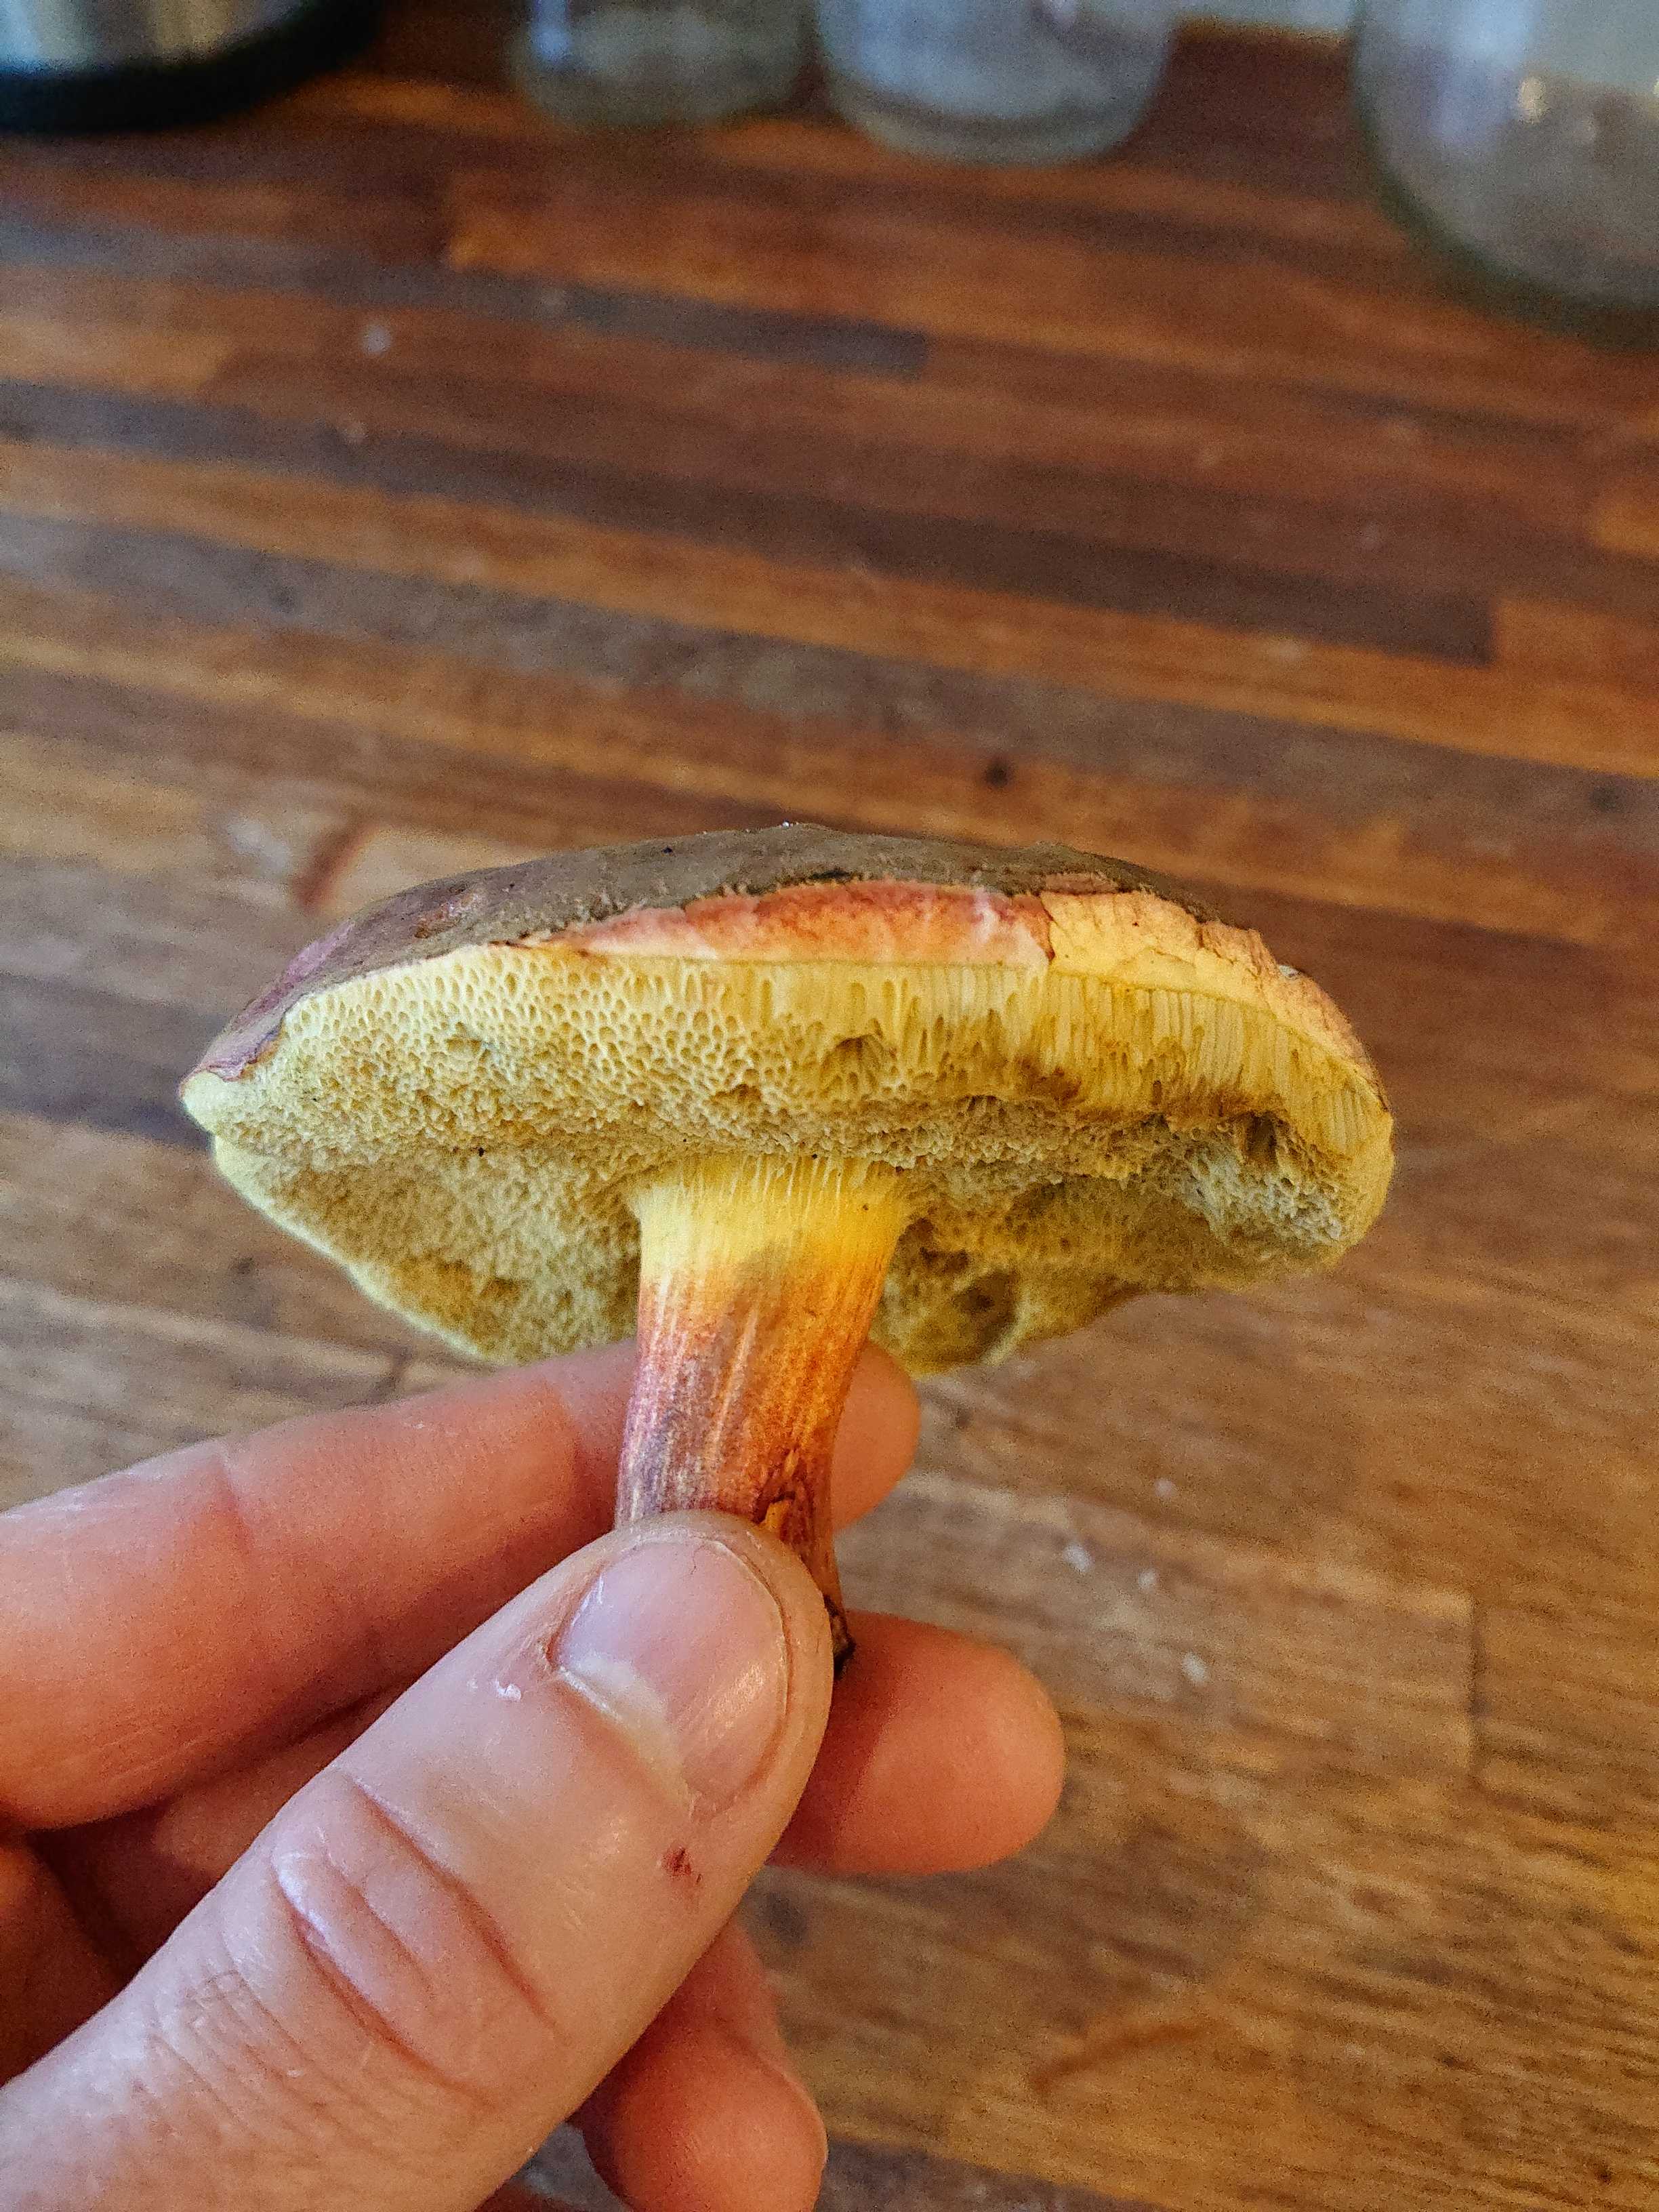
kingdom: Fungi
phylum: Basidiomycota
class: Agaricomycetes
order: Boletales
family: Boletaceae
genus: Xerocomellus
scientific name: Xerocomellus pruinatus
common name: dugget rørhat
